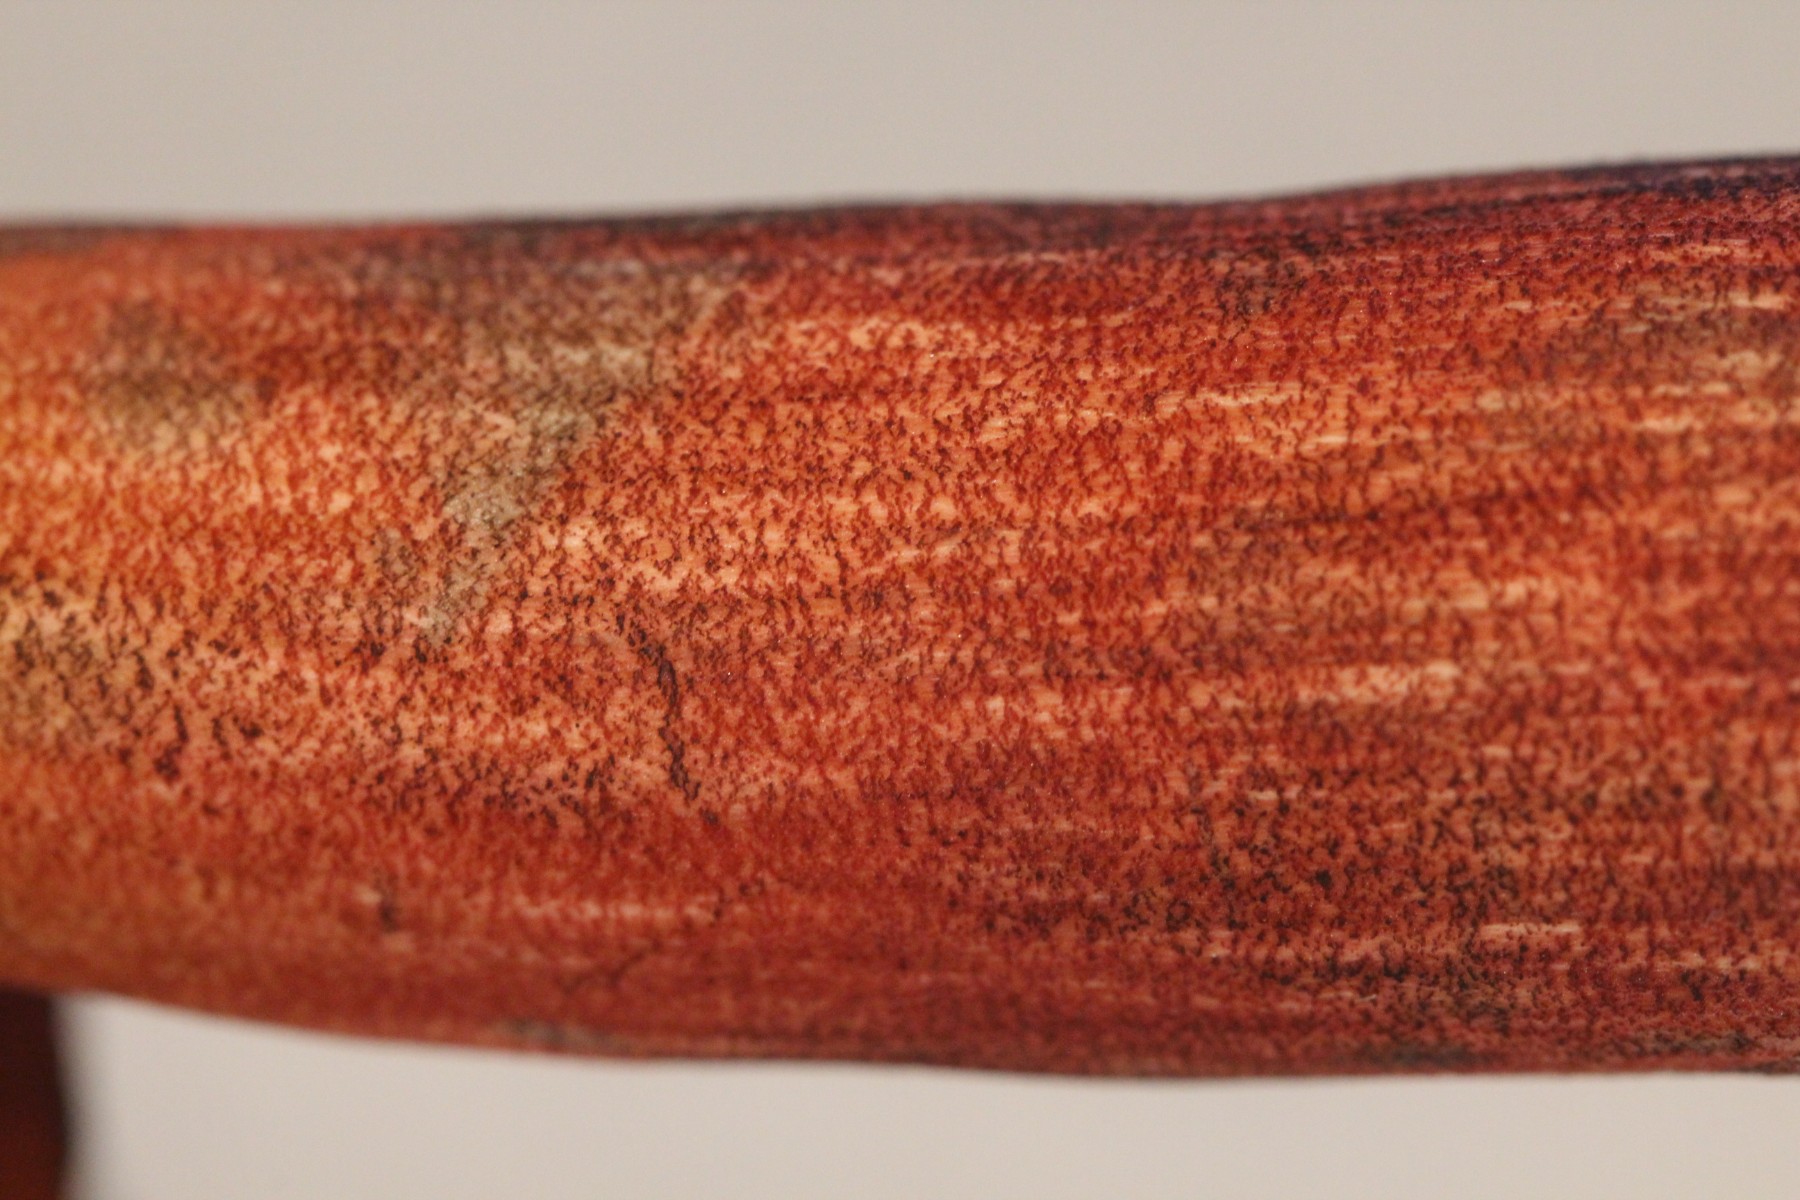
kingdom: Fungi
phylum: Basidiomycota
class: Agaricomycetes
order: Boletales
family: Boletaceae
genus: Neoboletus
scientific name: Neoboletus erythropus
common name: punktstokket indigorørhat
